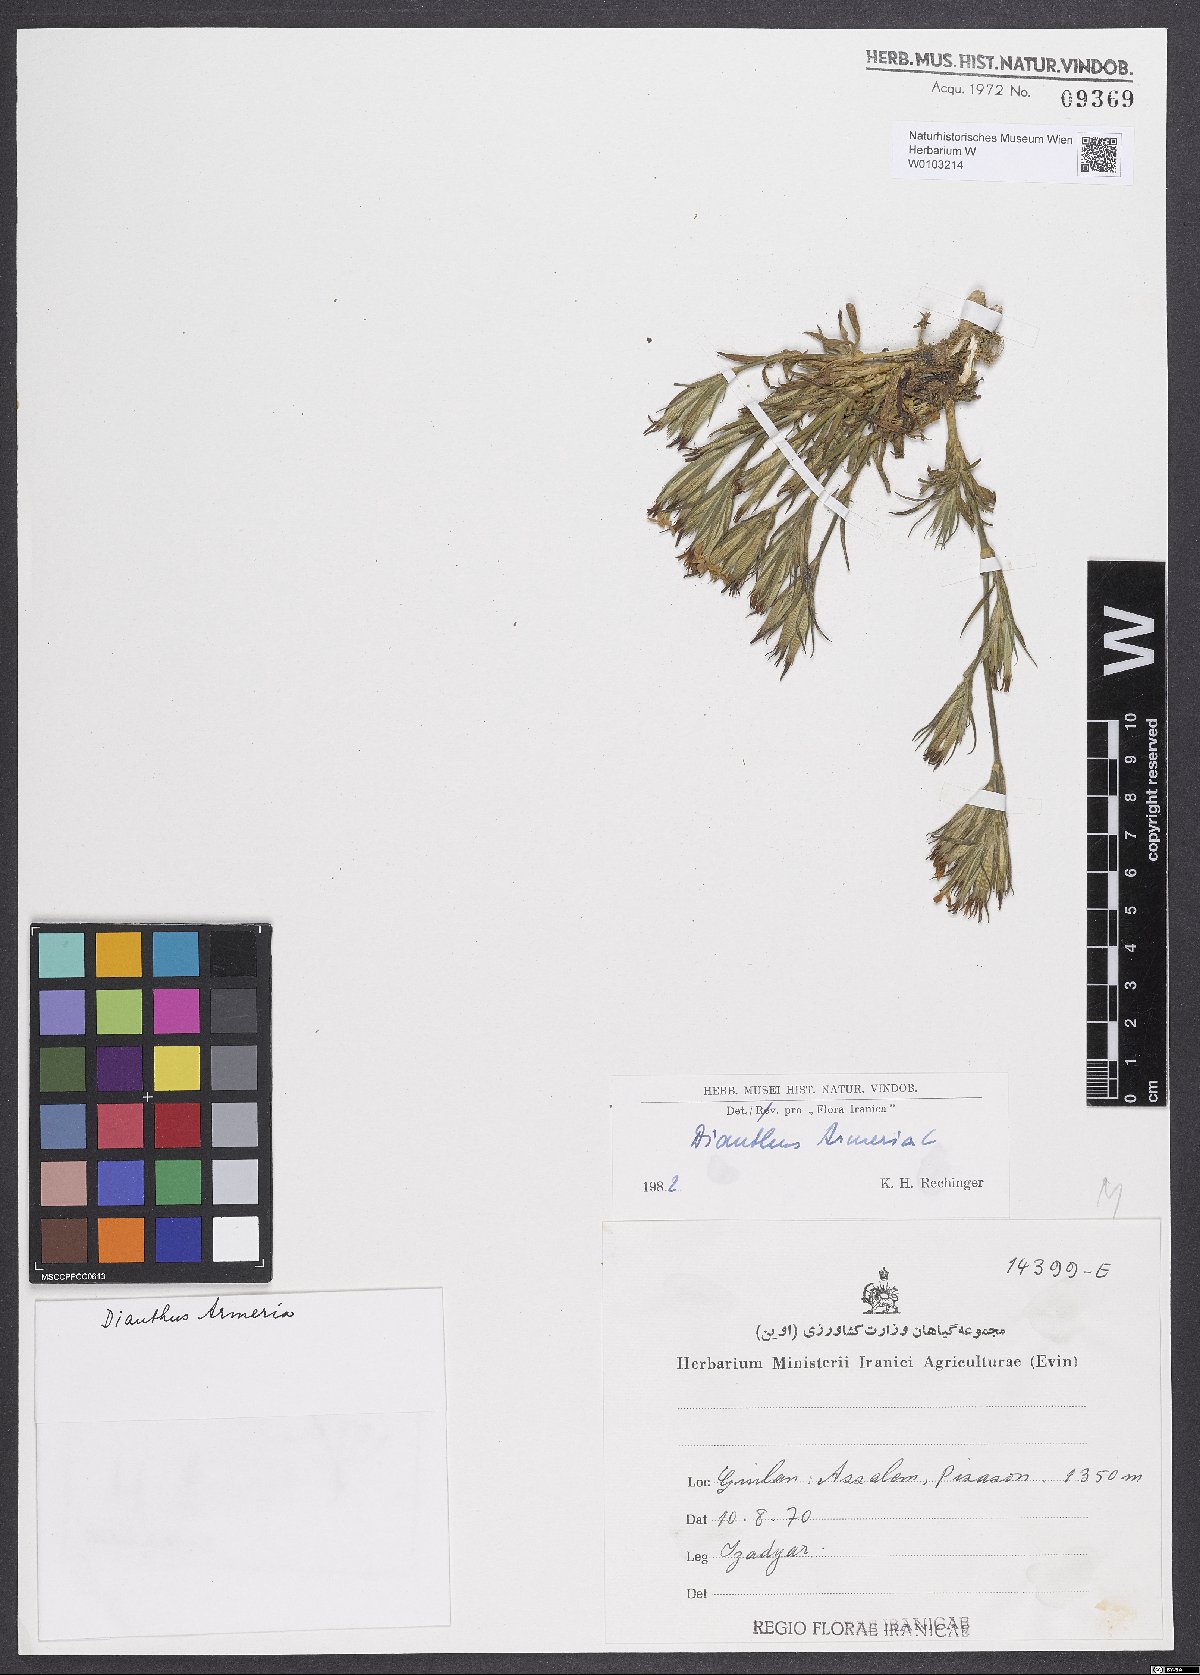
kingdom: Plantae
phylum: Tracheophyta
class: Magnoliopsida
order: Caryophyllales
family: Caryophyllaceae
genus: Dianthus
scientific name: Dianthus armeria
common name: Deptford pink
